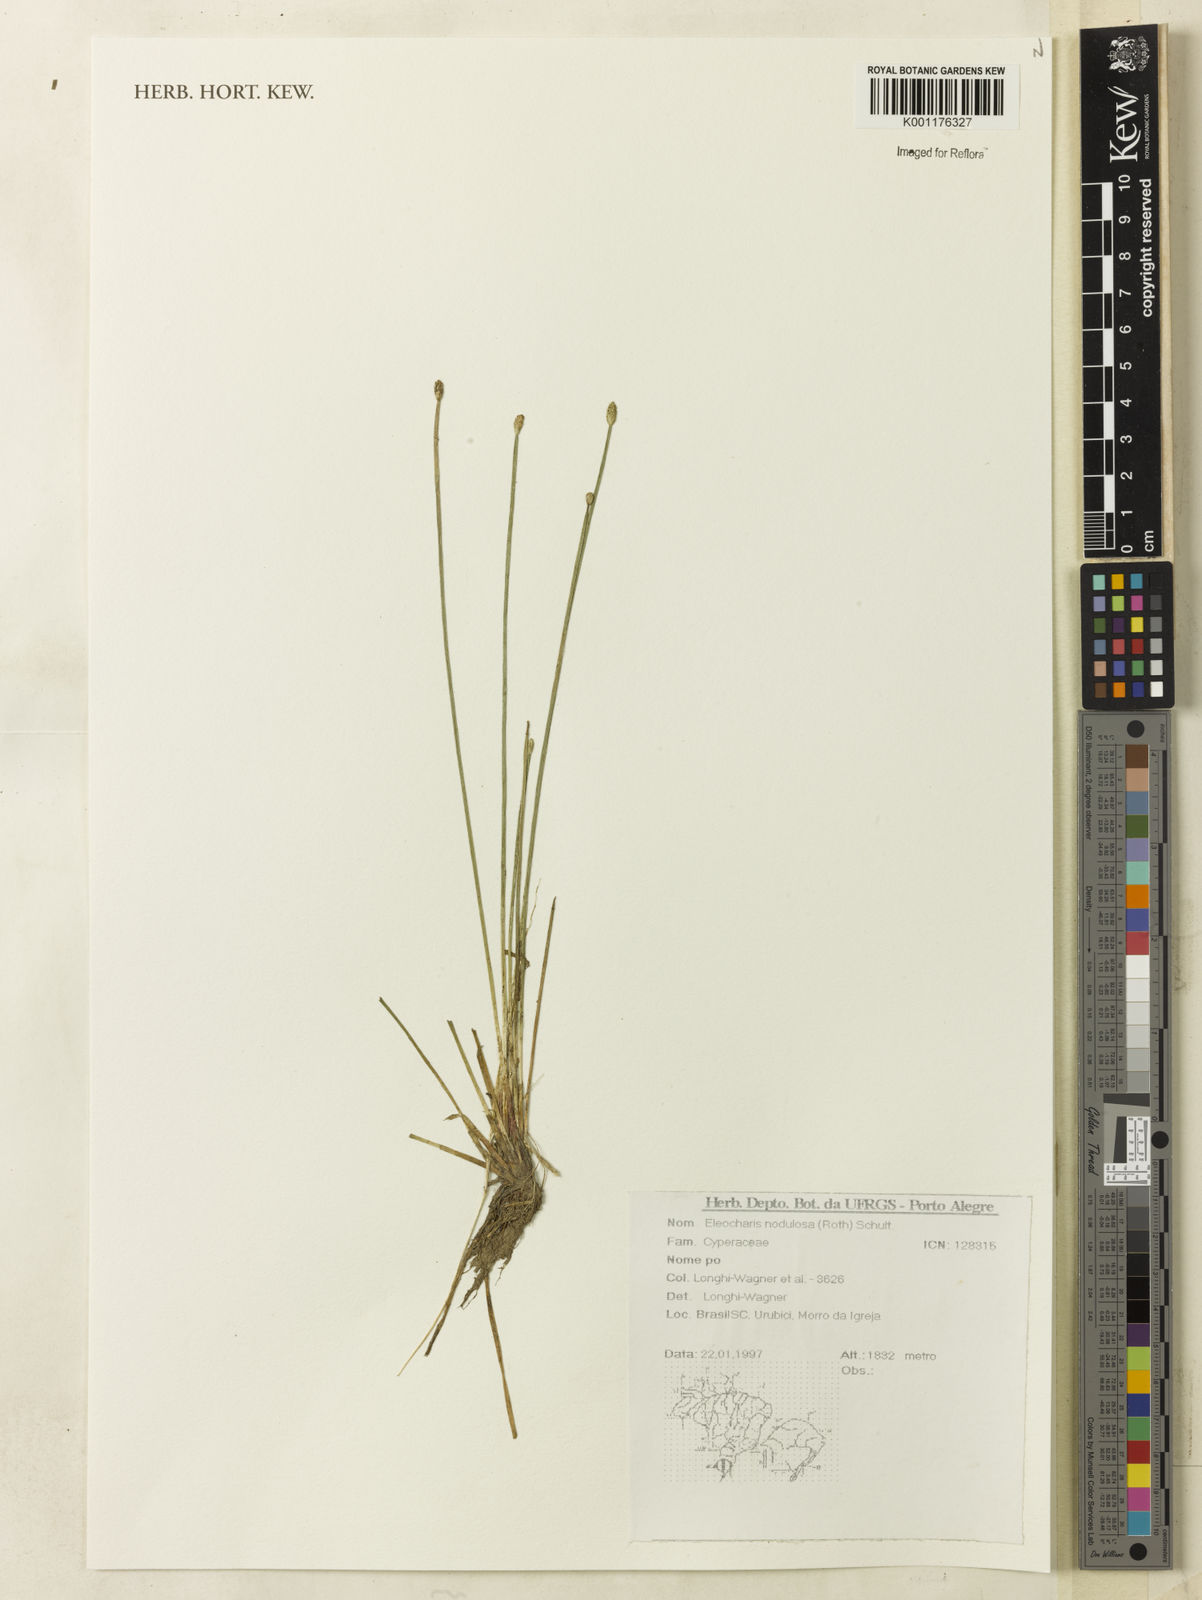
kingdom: Plantae
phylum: Tracheophyta
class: Liliopsida
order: Poales
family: Cyperaceae
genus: Eleocharis
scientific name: Eleocharis
